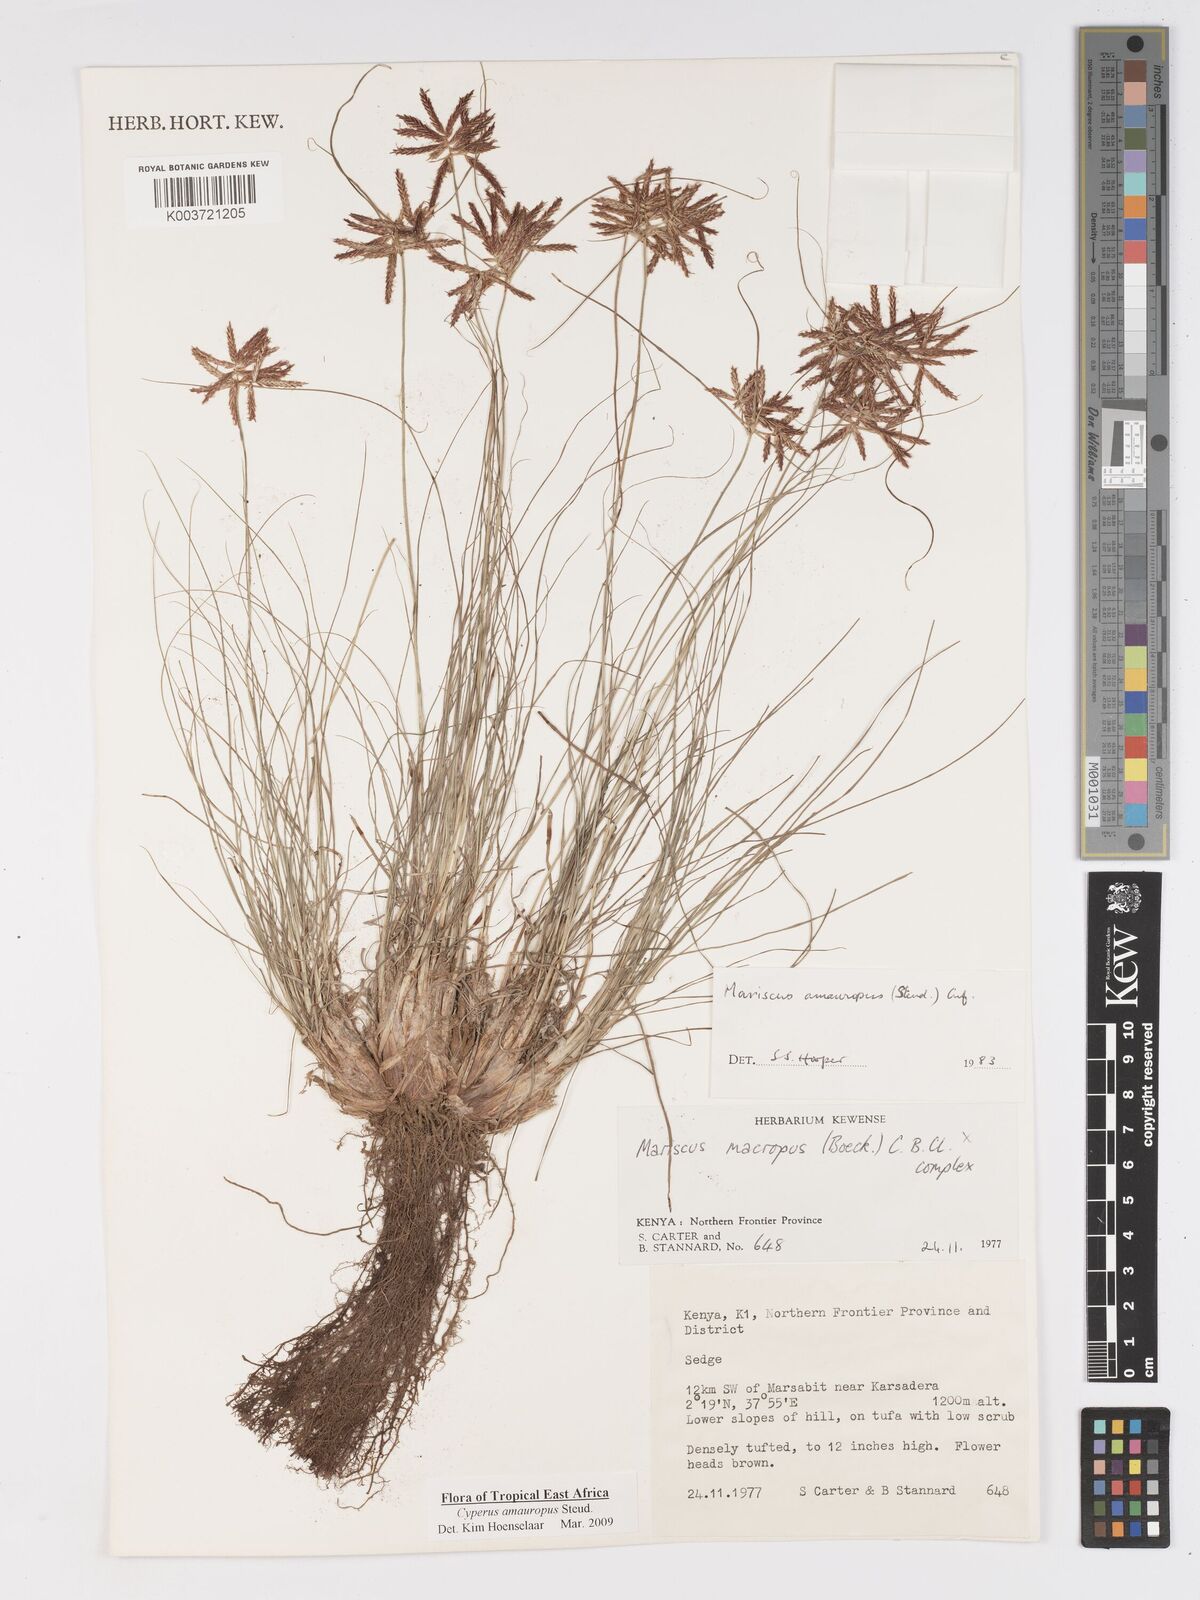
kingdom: Plantae
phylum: Tracheophyta
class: Liliopsida
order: Poales
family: Cyperaceae
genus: Cyperus
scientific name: Cyperus amauropus
